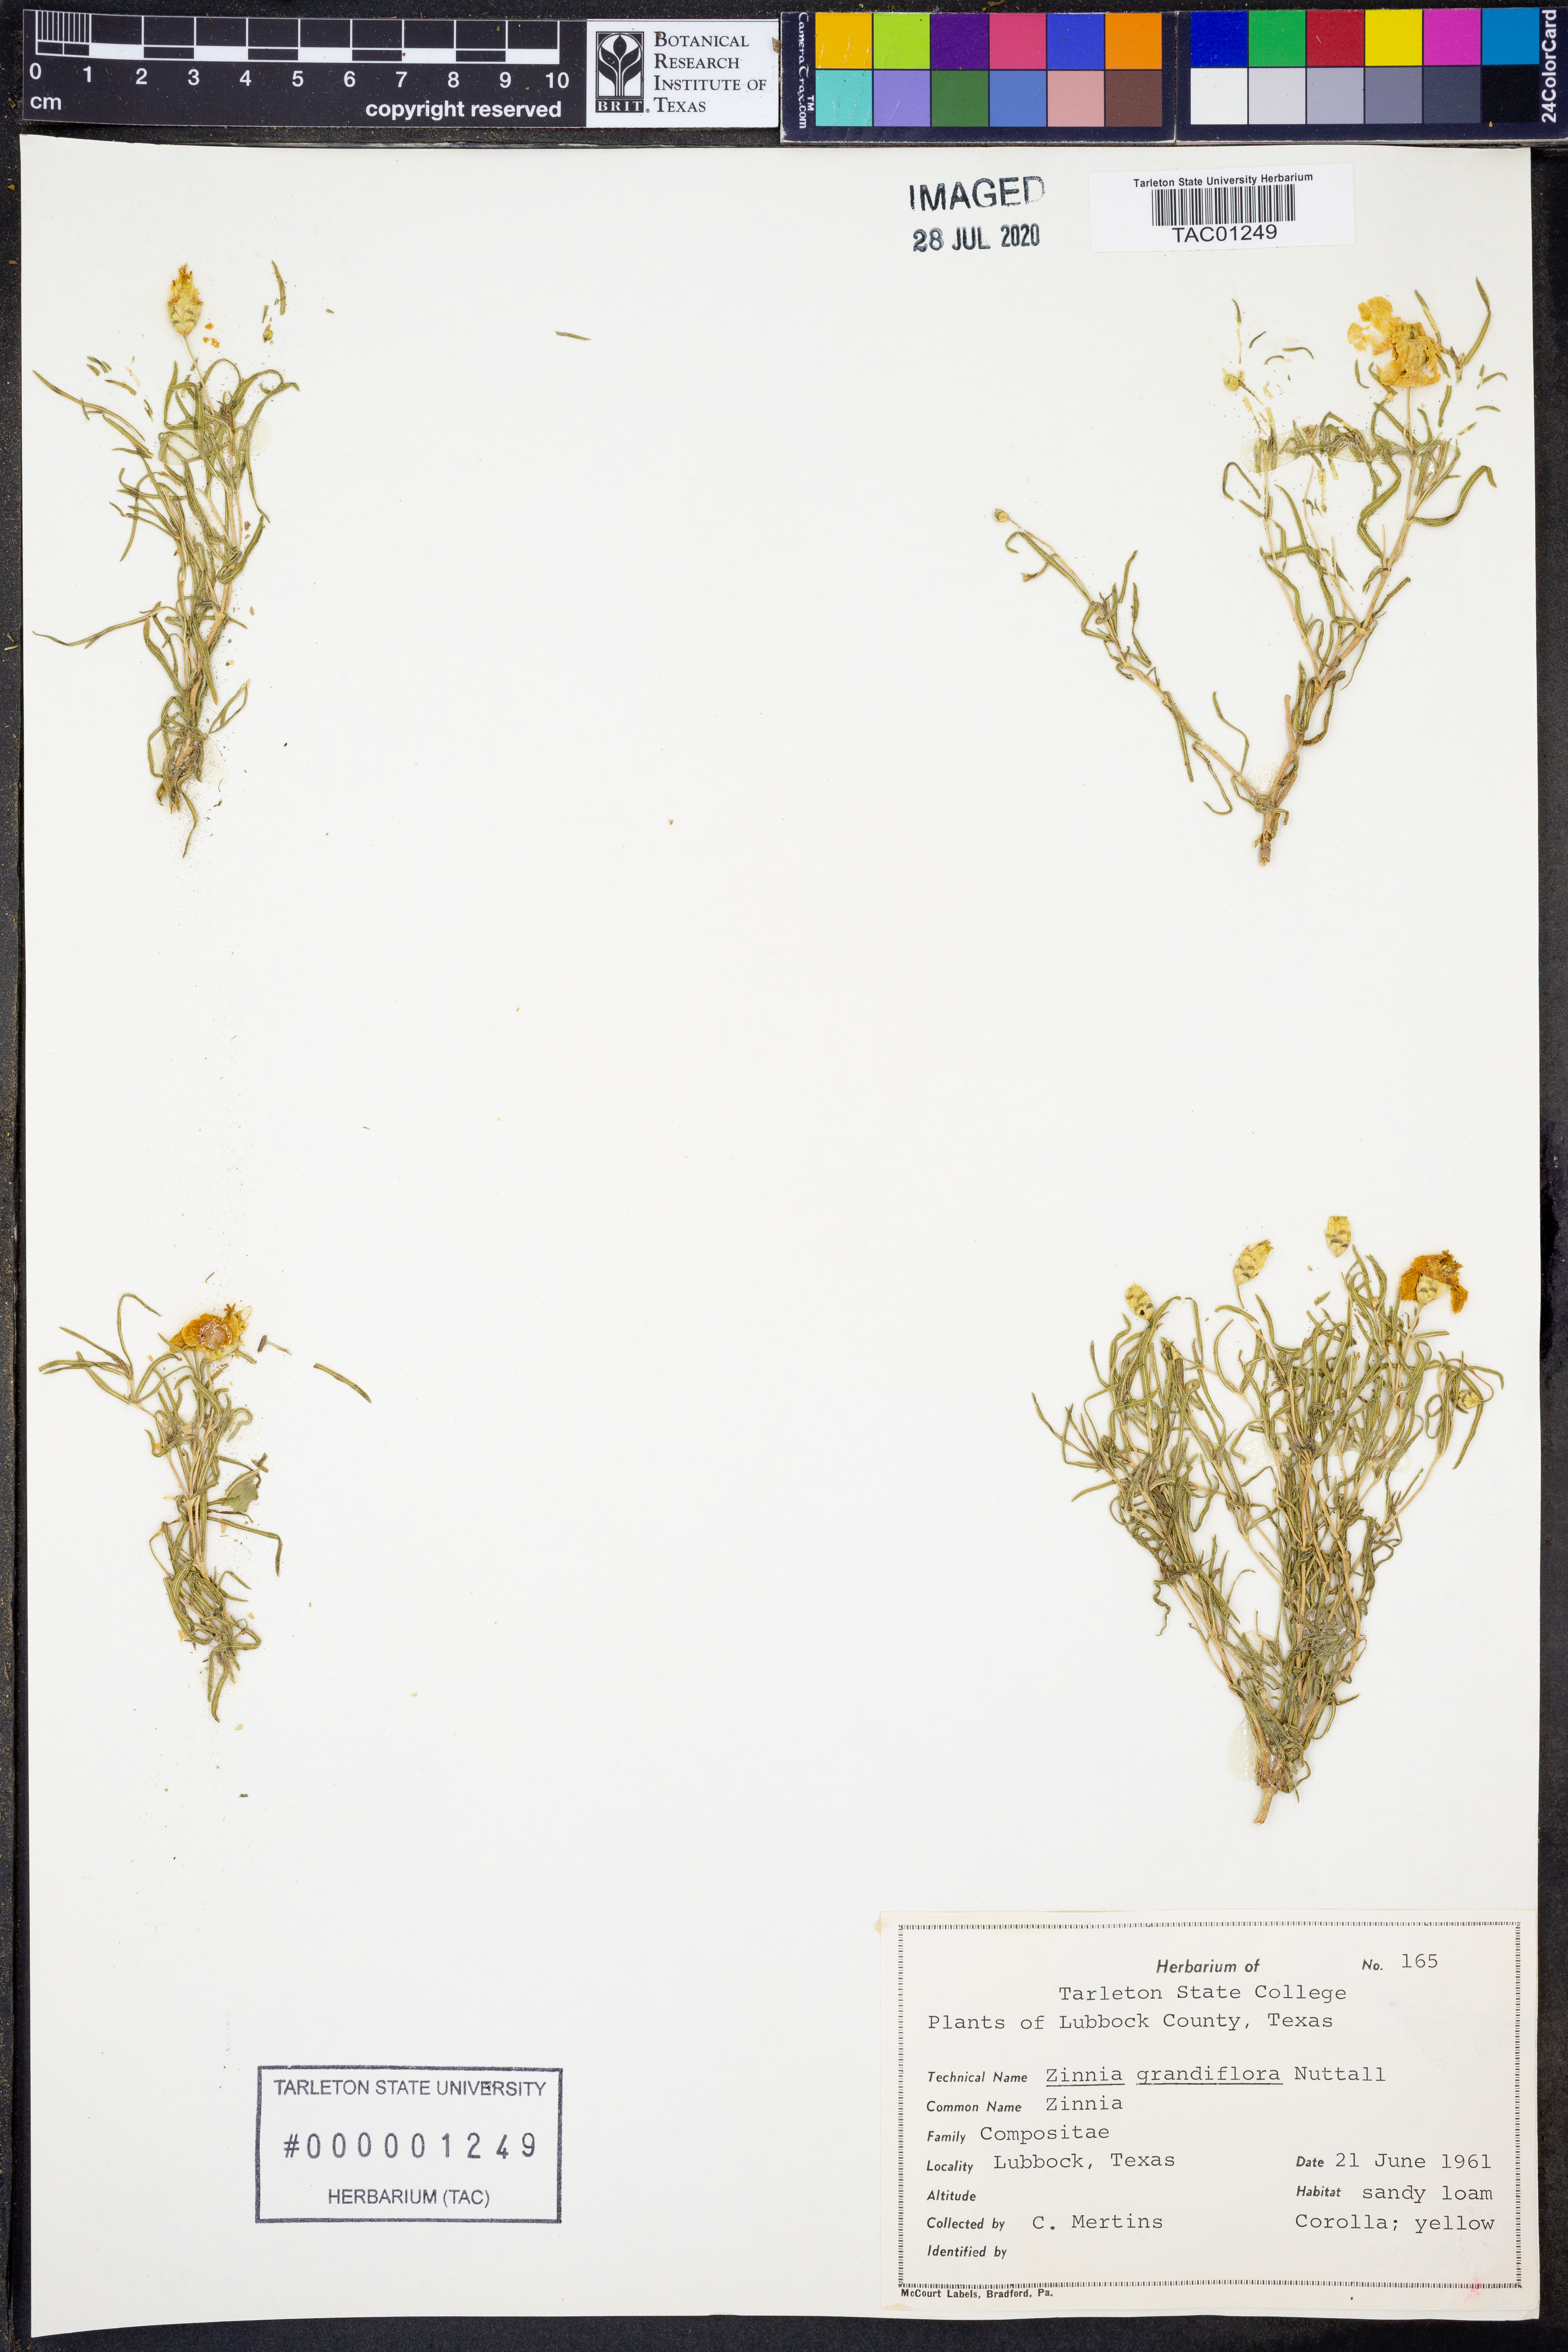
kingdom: Plantae
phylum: Tracheophyta
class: Magnoliopsida
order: Asterales
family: Asteraceae
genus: Zinnia
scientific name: Zinnia grandiflora
